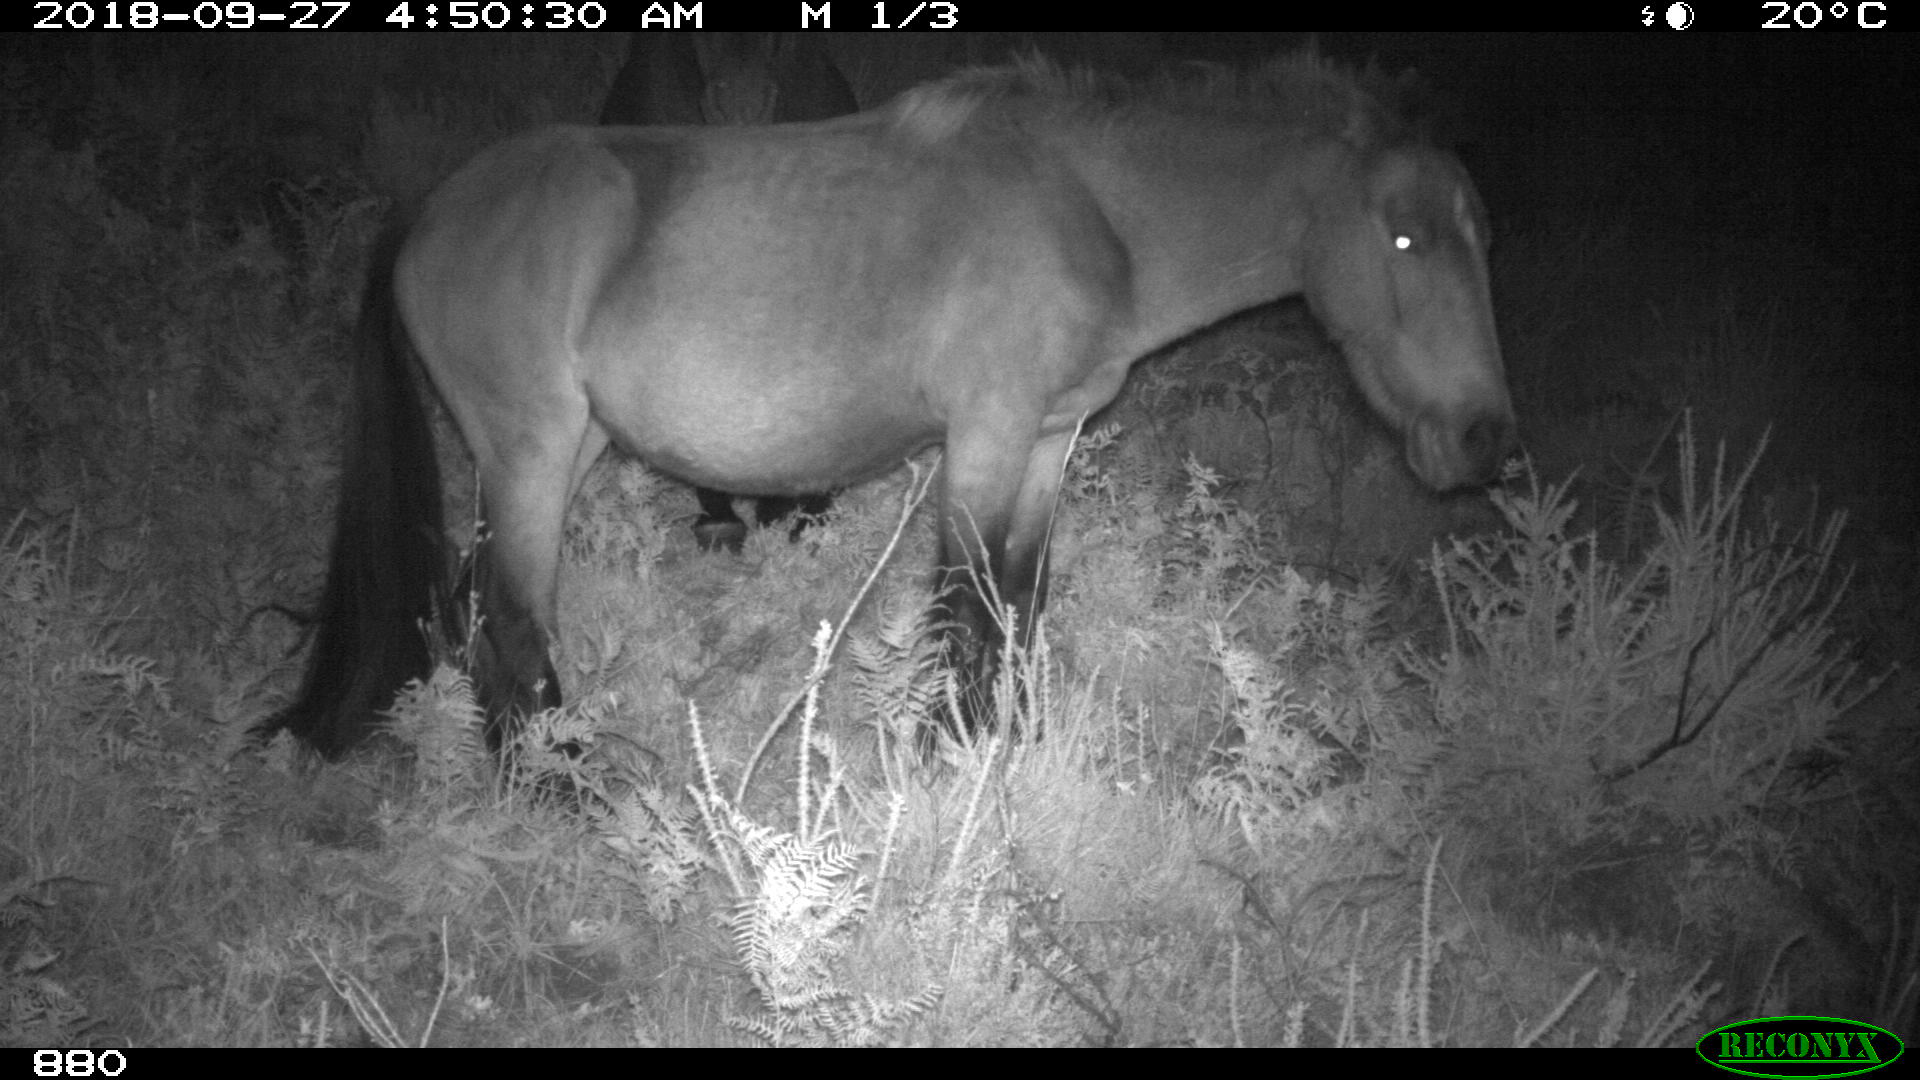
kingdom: Animalia
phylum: Chordata
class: Mammalia
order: Perissodactyla
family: Equidae
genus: Equus
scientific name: Equus caballus
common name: Horse
